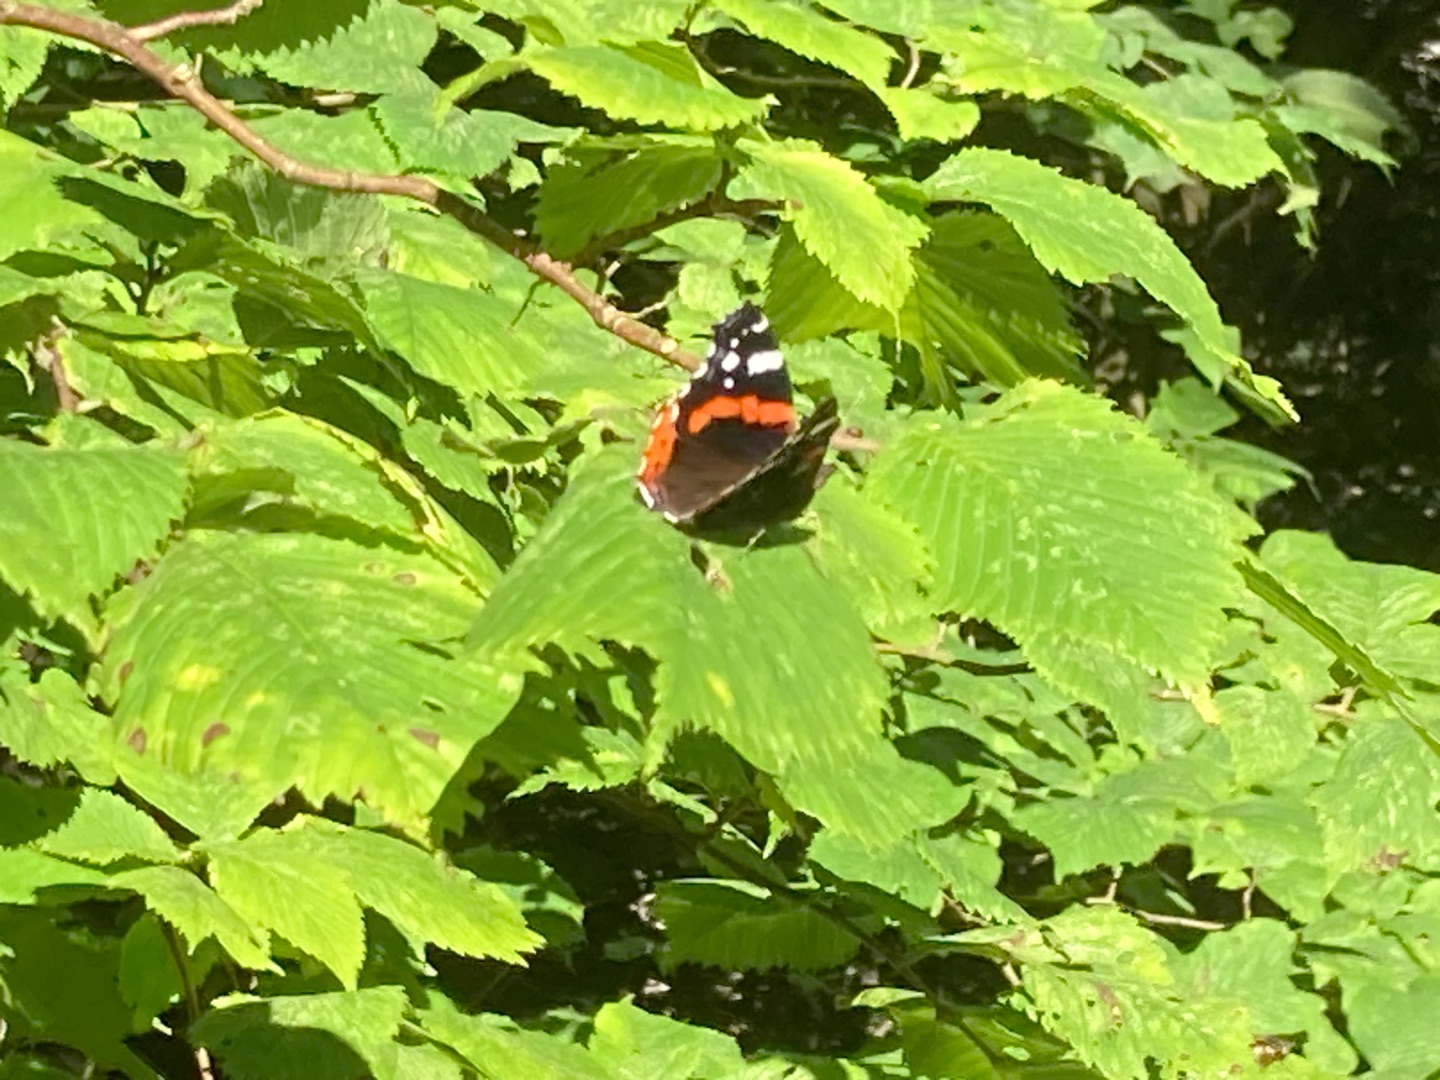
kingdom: Animalia
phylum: Arthropoda
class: Insecta
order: Lepidoptera
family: Nymphalidae
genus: Vanessa
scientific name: Vanessa atalanta
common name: Admiral
